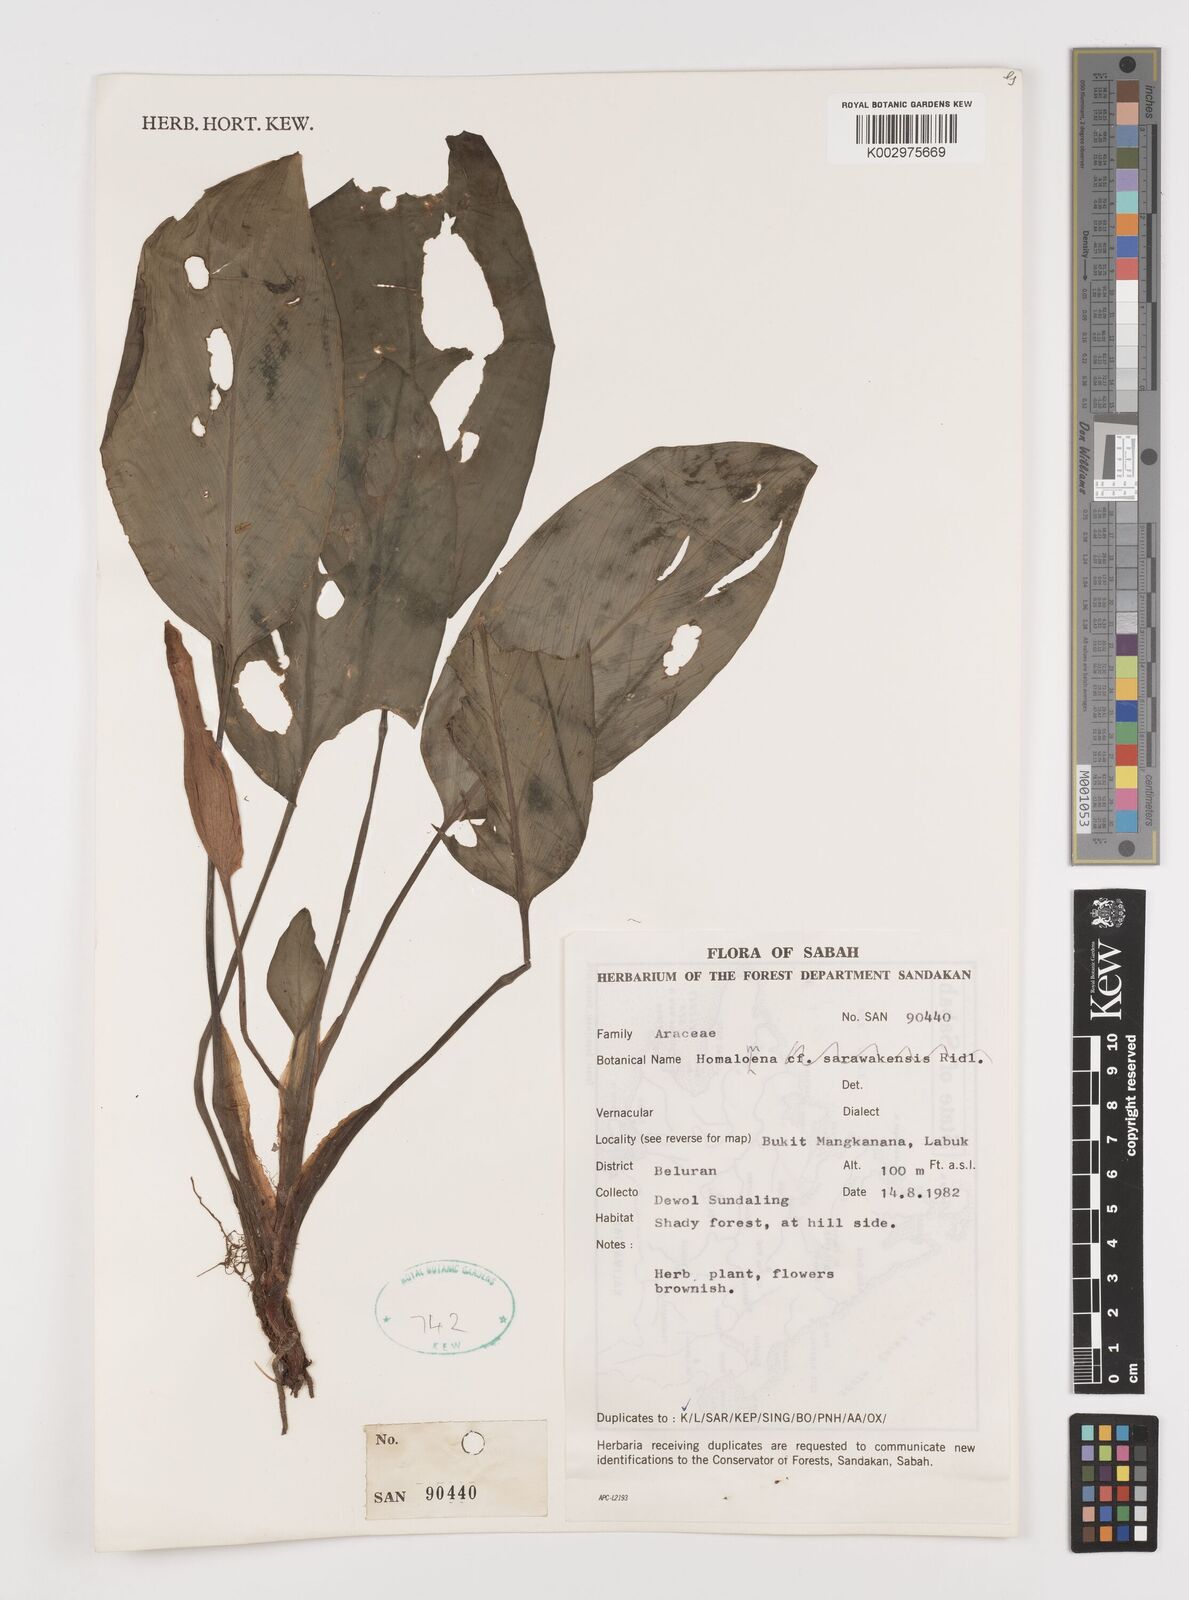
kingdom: Plantae
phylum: Tracheophyta
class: Liliopsida
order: Alismatales
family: Araceae
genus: Homalomena
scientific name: Homalomena
